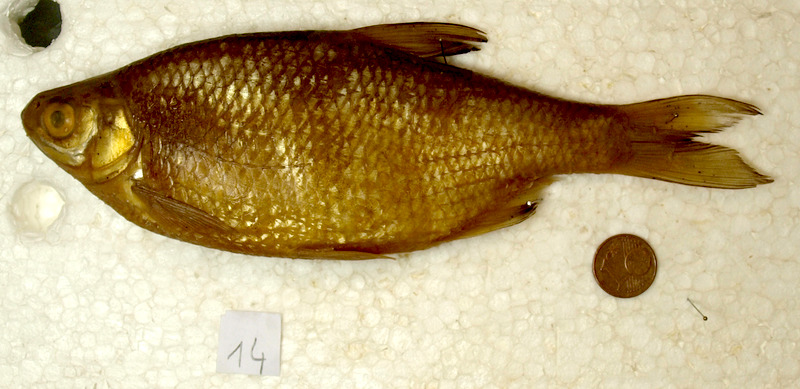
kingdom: Animalia
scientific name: Animalia
